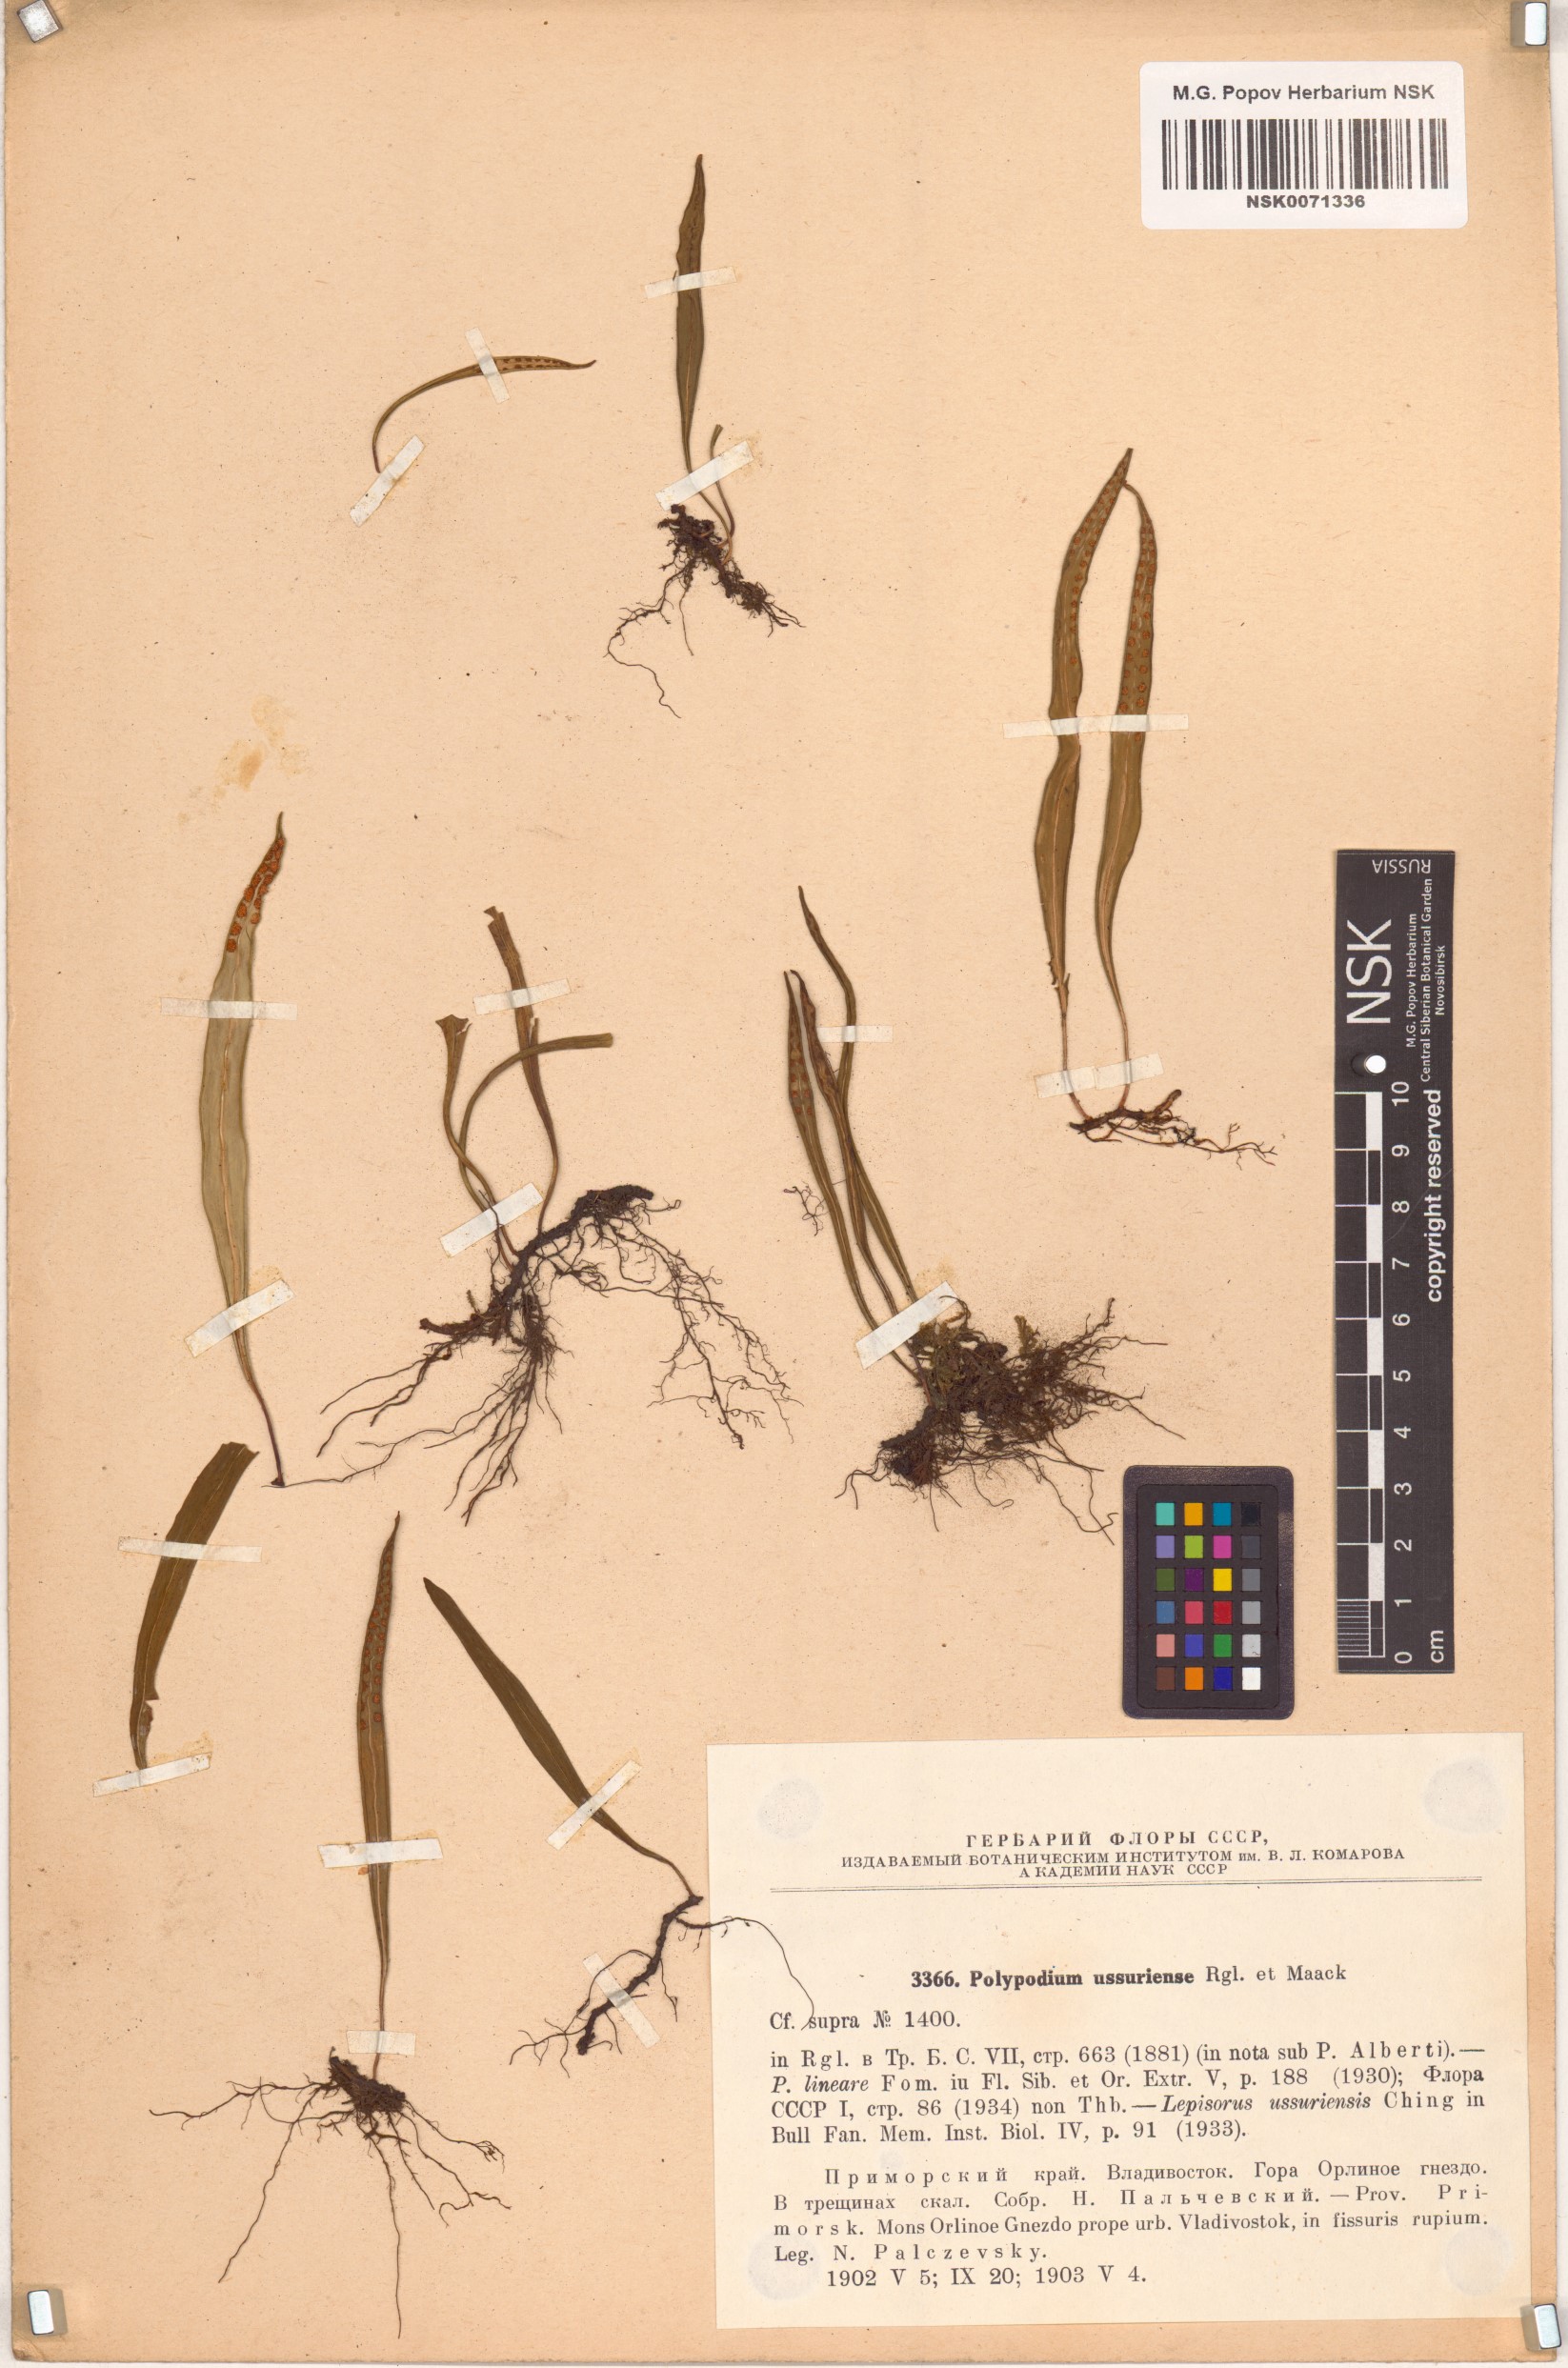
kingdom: Plantae
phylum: Tracheophyta
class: Polypodiopsida
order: Polypodiales
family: Polypodiaceae
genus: Lepisorus
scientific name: Lepisorus ussuriensis
